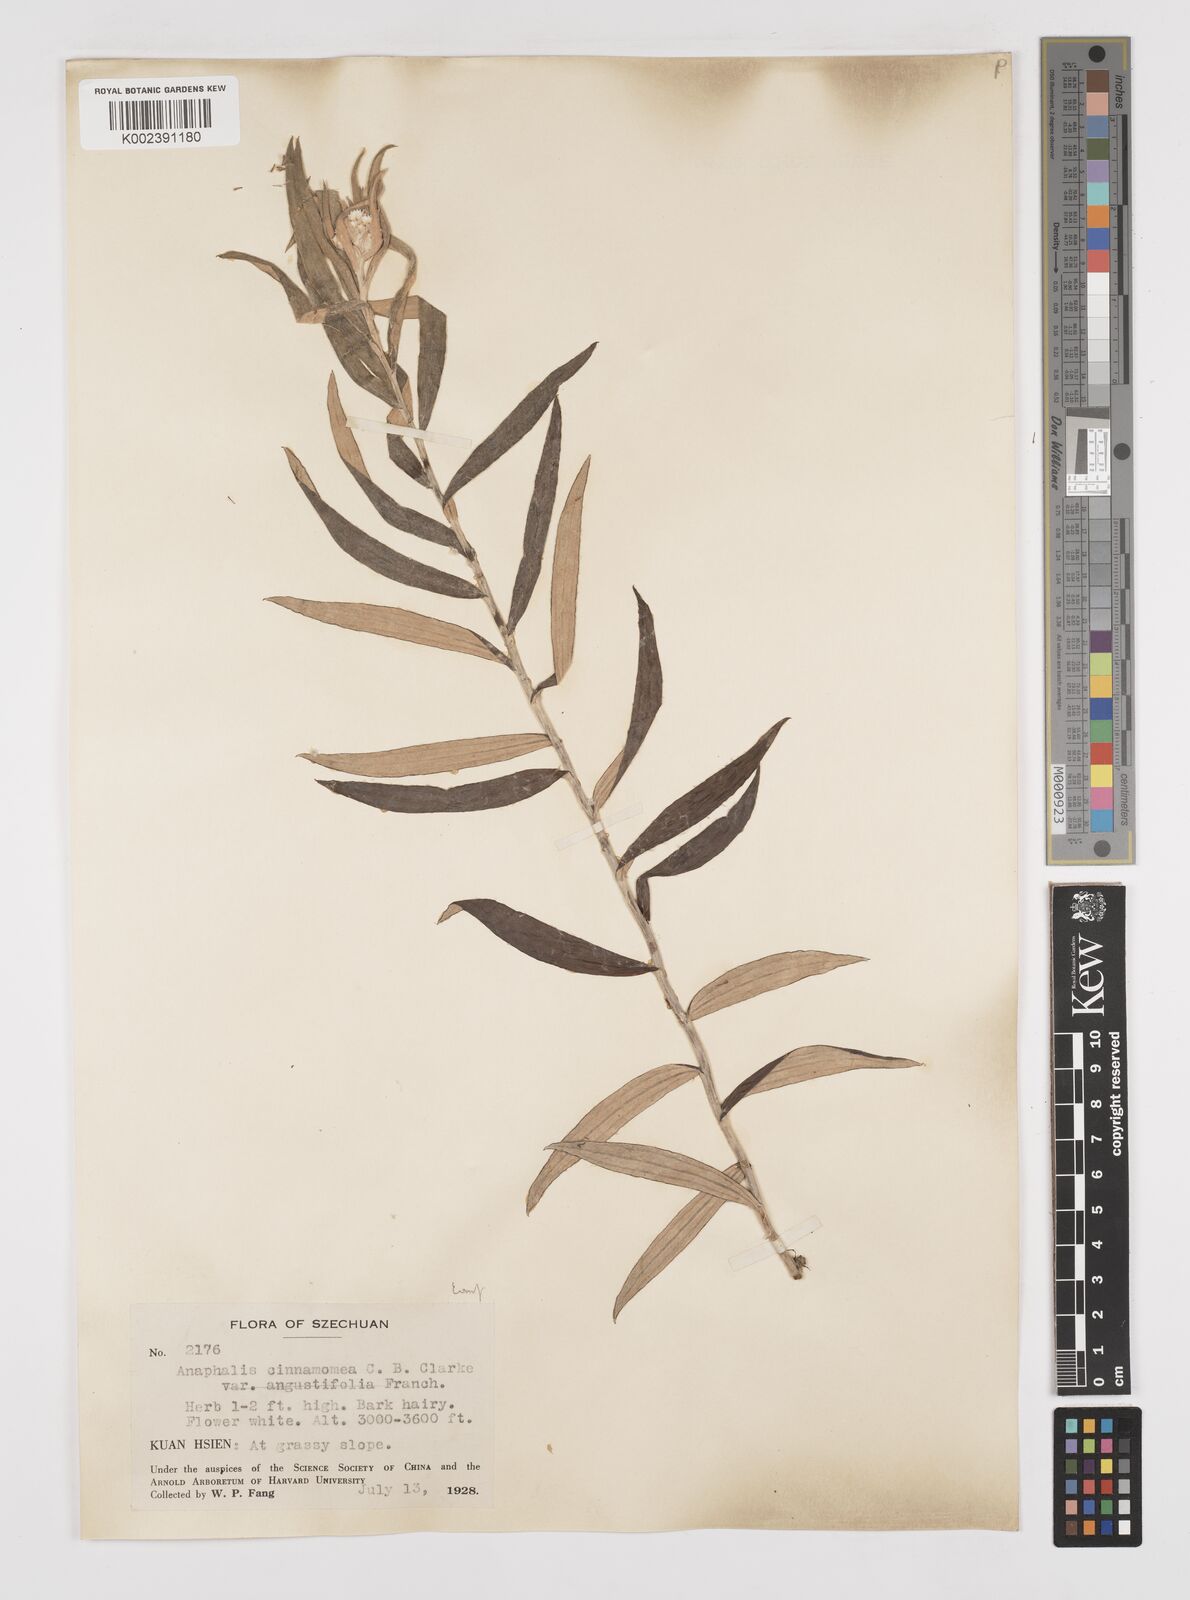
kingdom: Plantae
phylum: Tracheophyta
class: Magnoliopsida
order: Asterales
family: Asteraceae
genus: Anaphalis
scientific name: Anaphalis margaritacea
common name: Pearly everlasting
